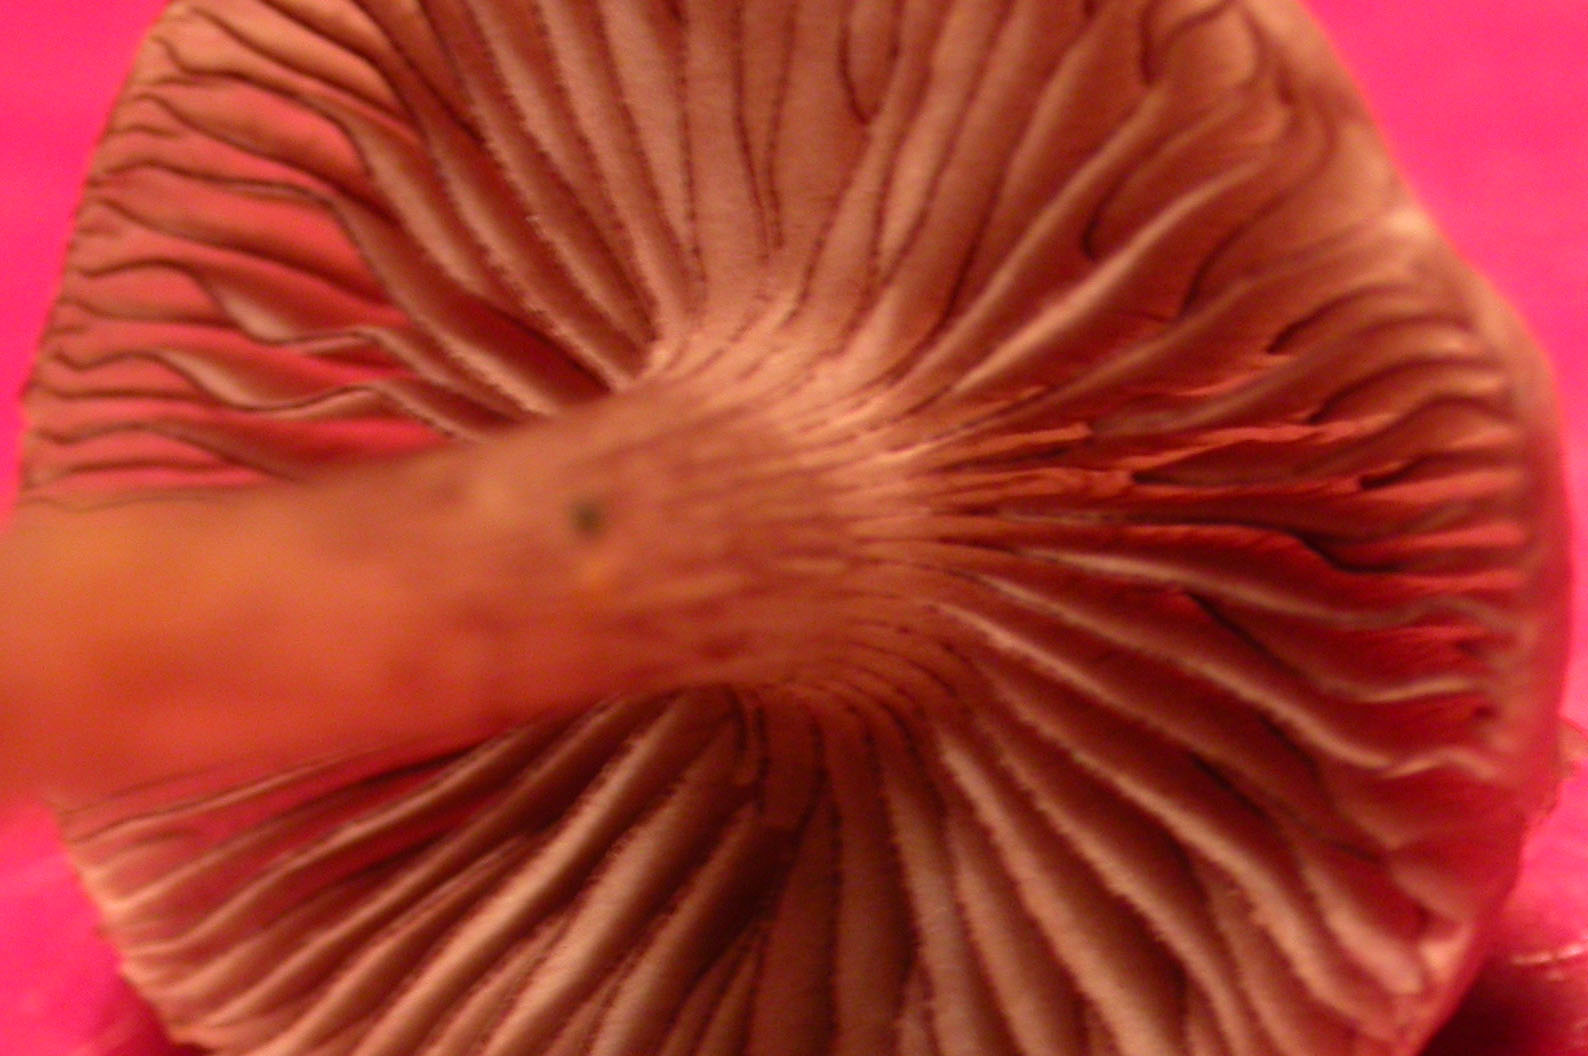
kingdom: Fungi
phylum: Basidiomycota
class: Agaricomycetes
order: Agaricales
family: Mycenaceae
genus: Mycena
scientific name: Mycena pelianthina
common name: mørkbladet huesvamp
